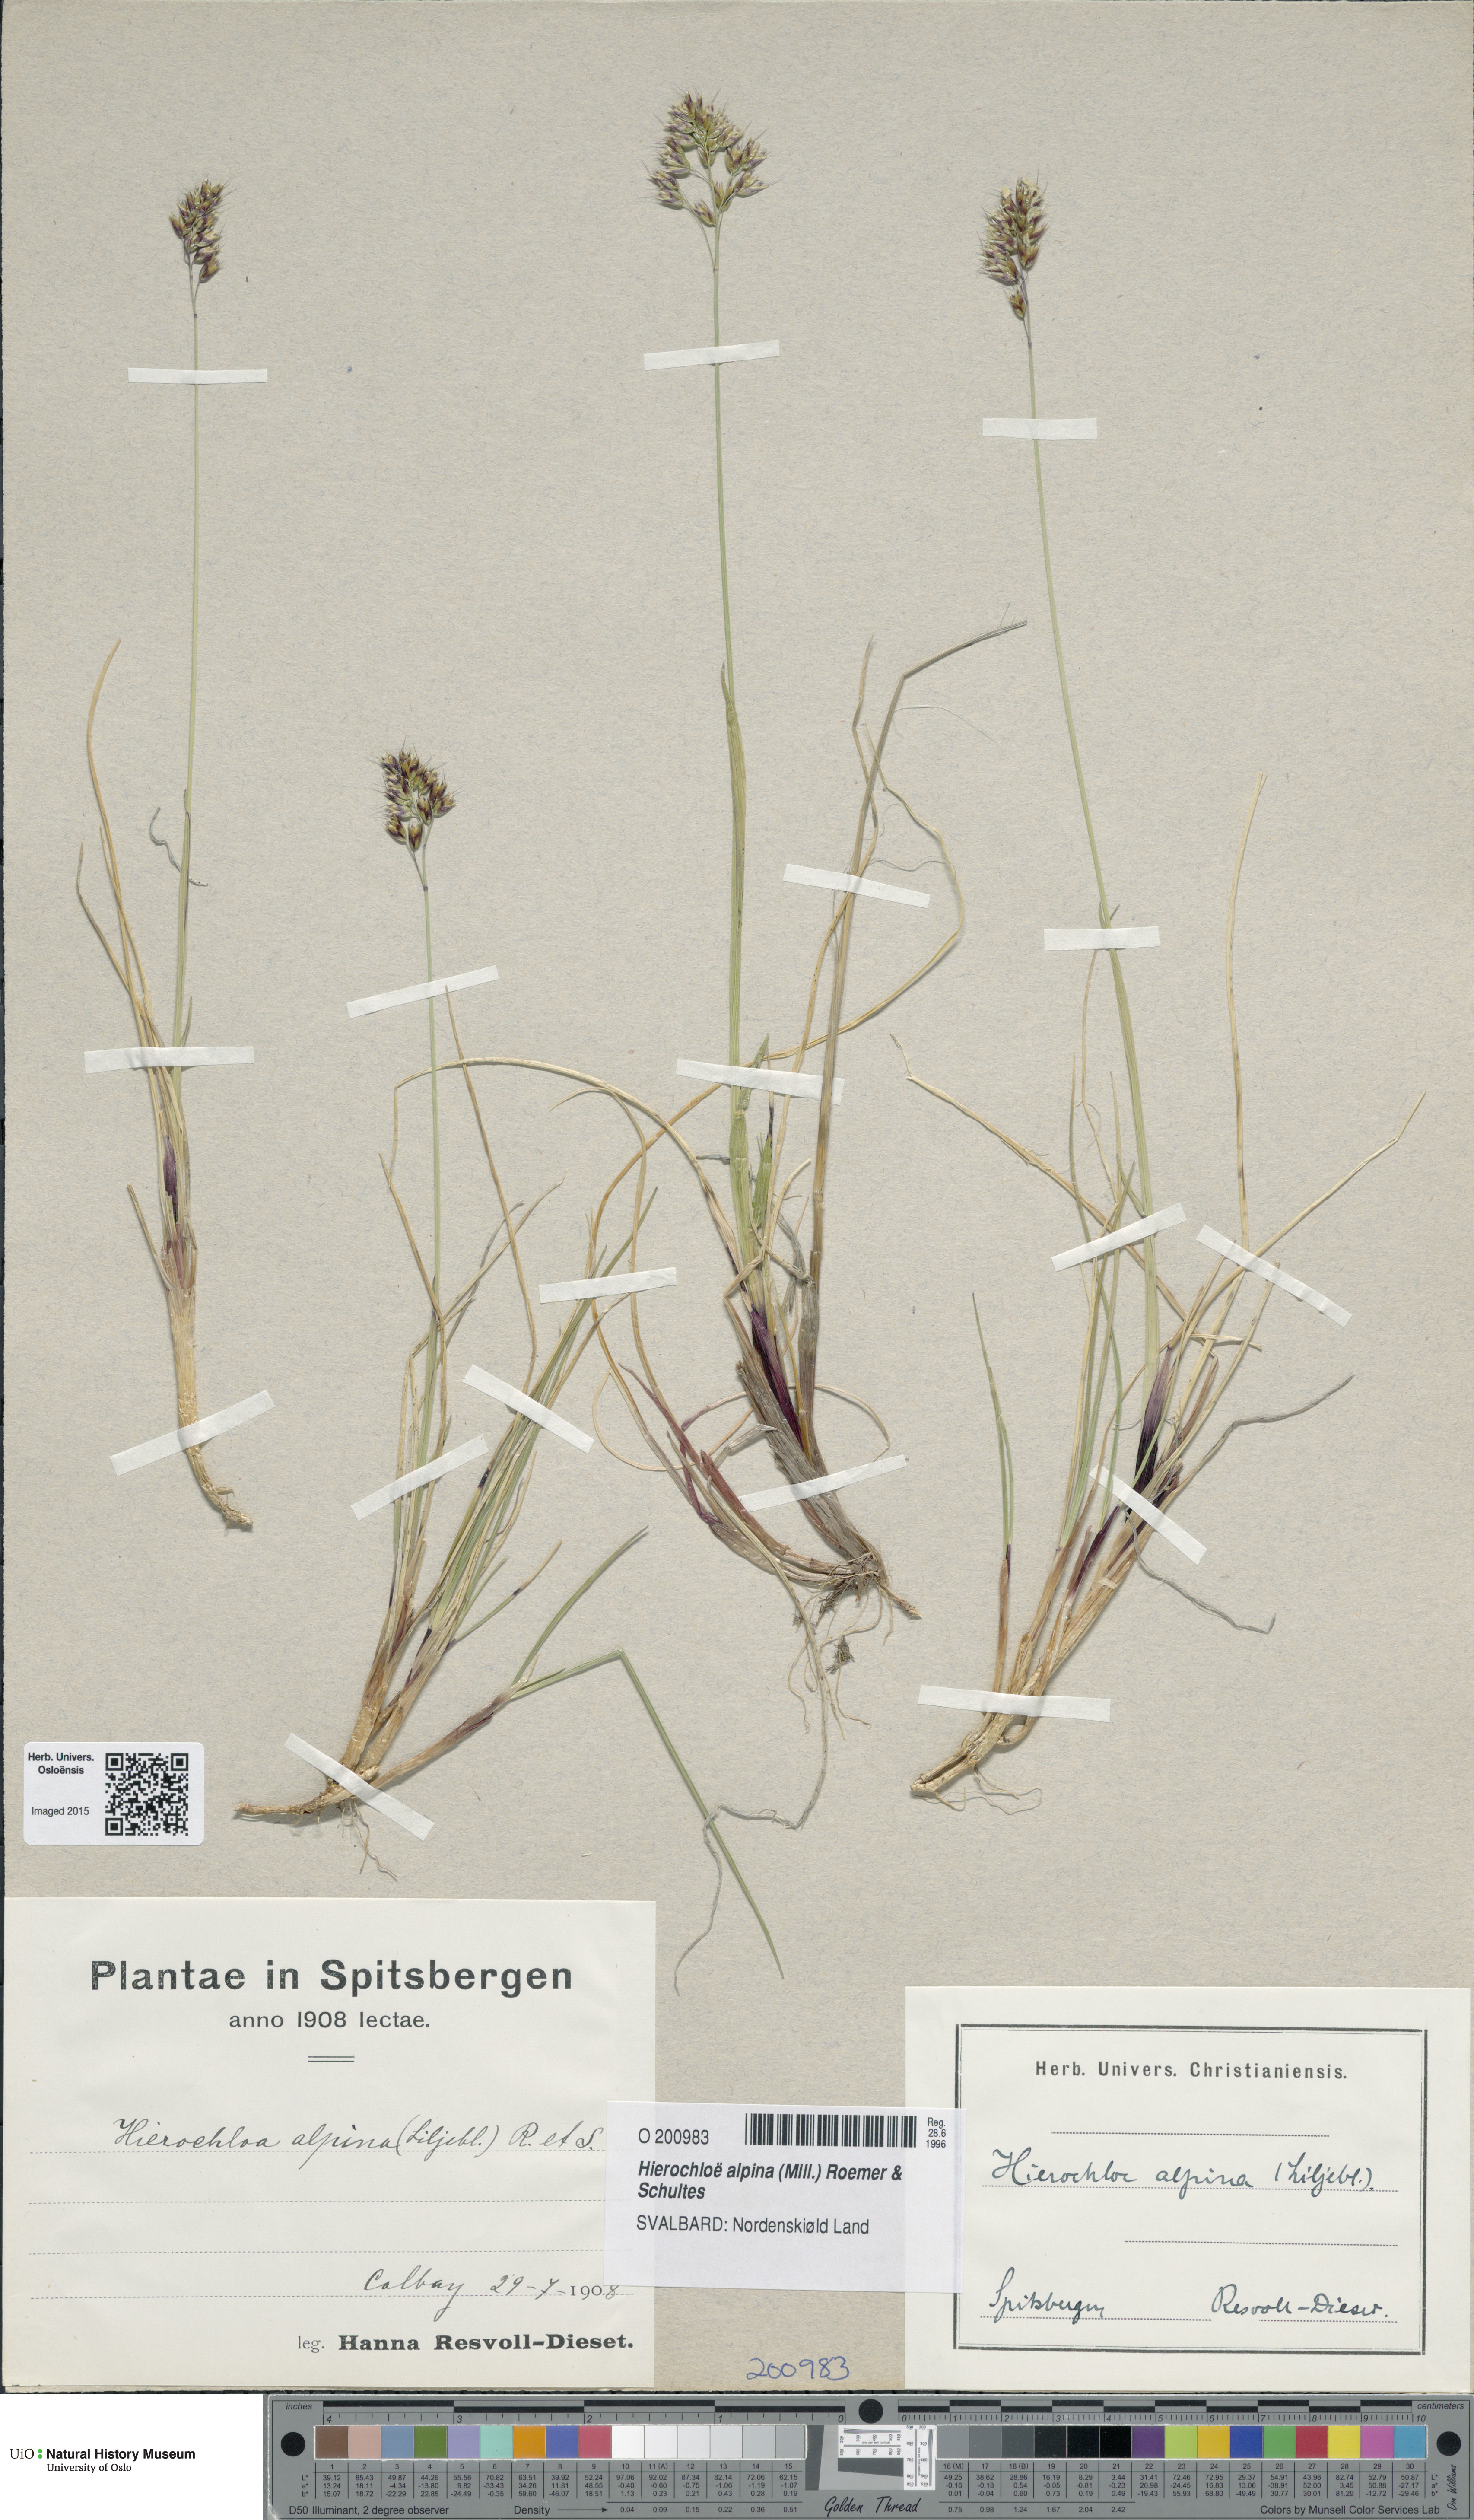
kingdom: Plantae
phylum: Tracheophyta
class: Liliopsida
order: Poales
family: Poaceae
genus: Anthoxanthum
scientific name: Anthoxanthum monticola
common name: Alpine sweetgrass
